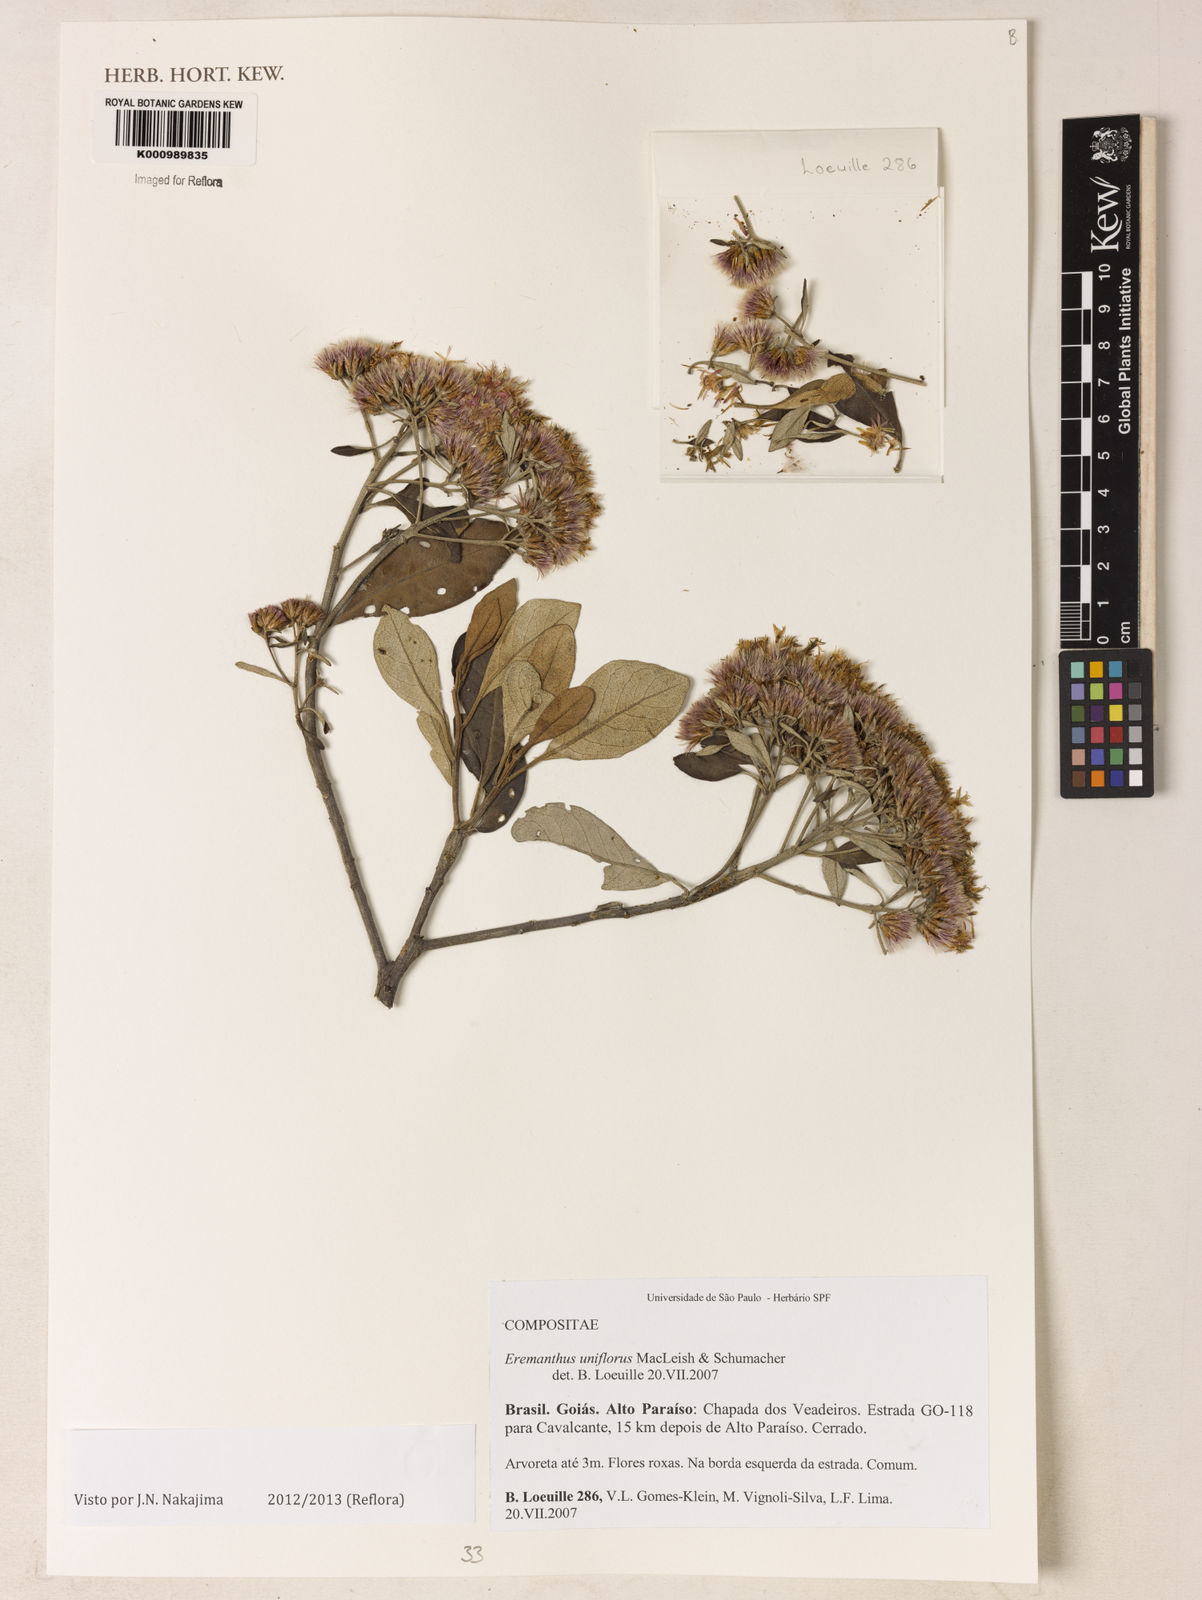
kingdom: Plantae
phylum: Tracheophyta
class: Magnoliopsida
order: Asterales
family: Asteraceae
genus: Eremanthus
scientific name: Eremanthus uniflorus
